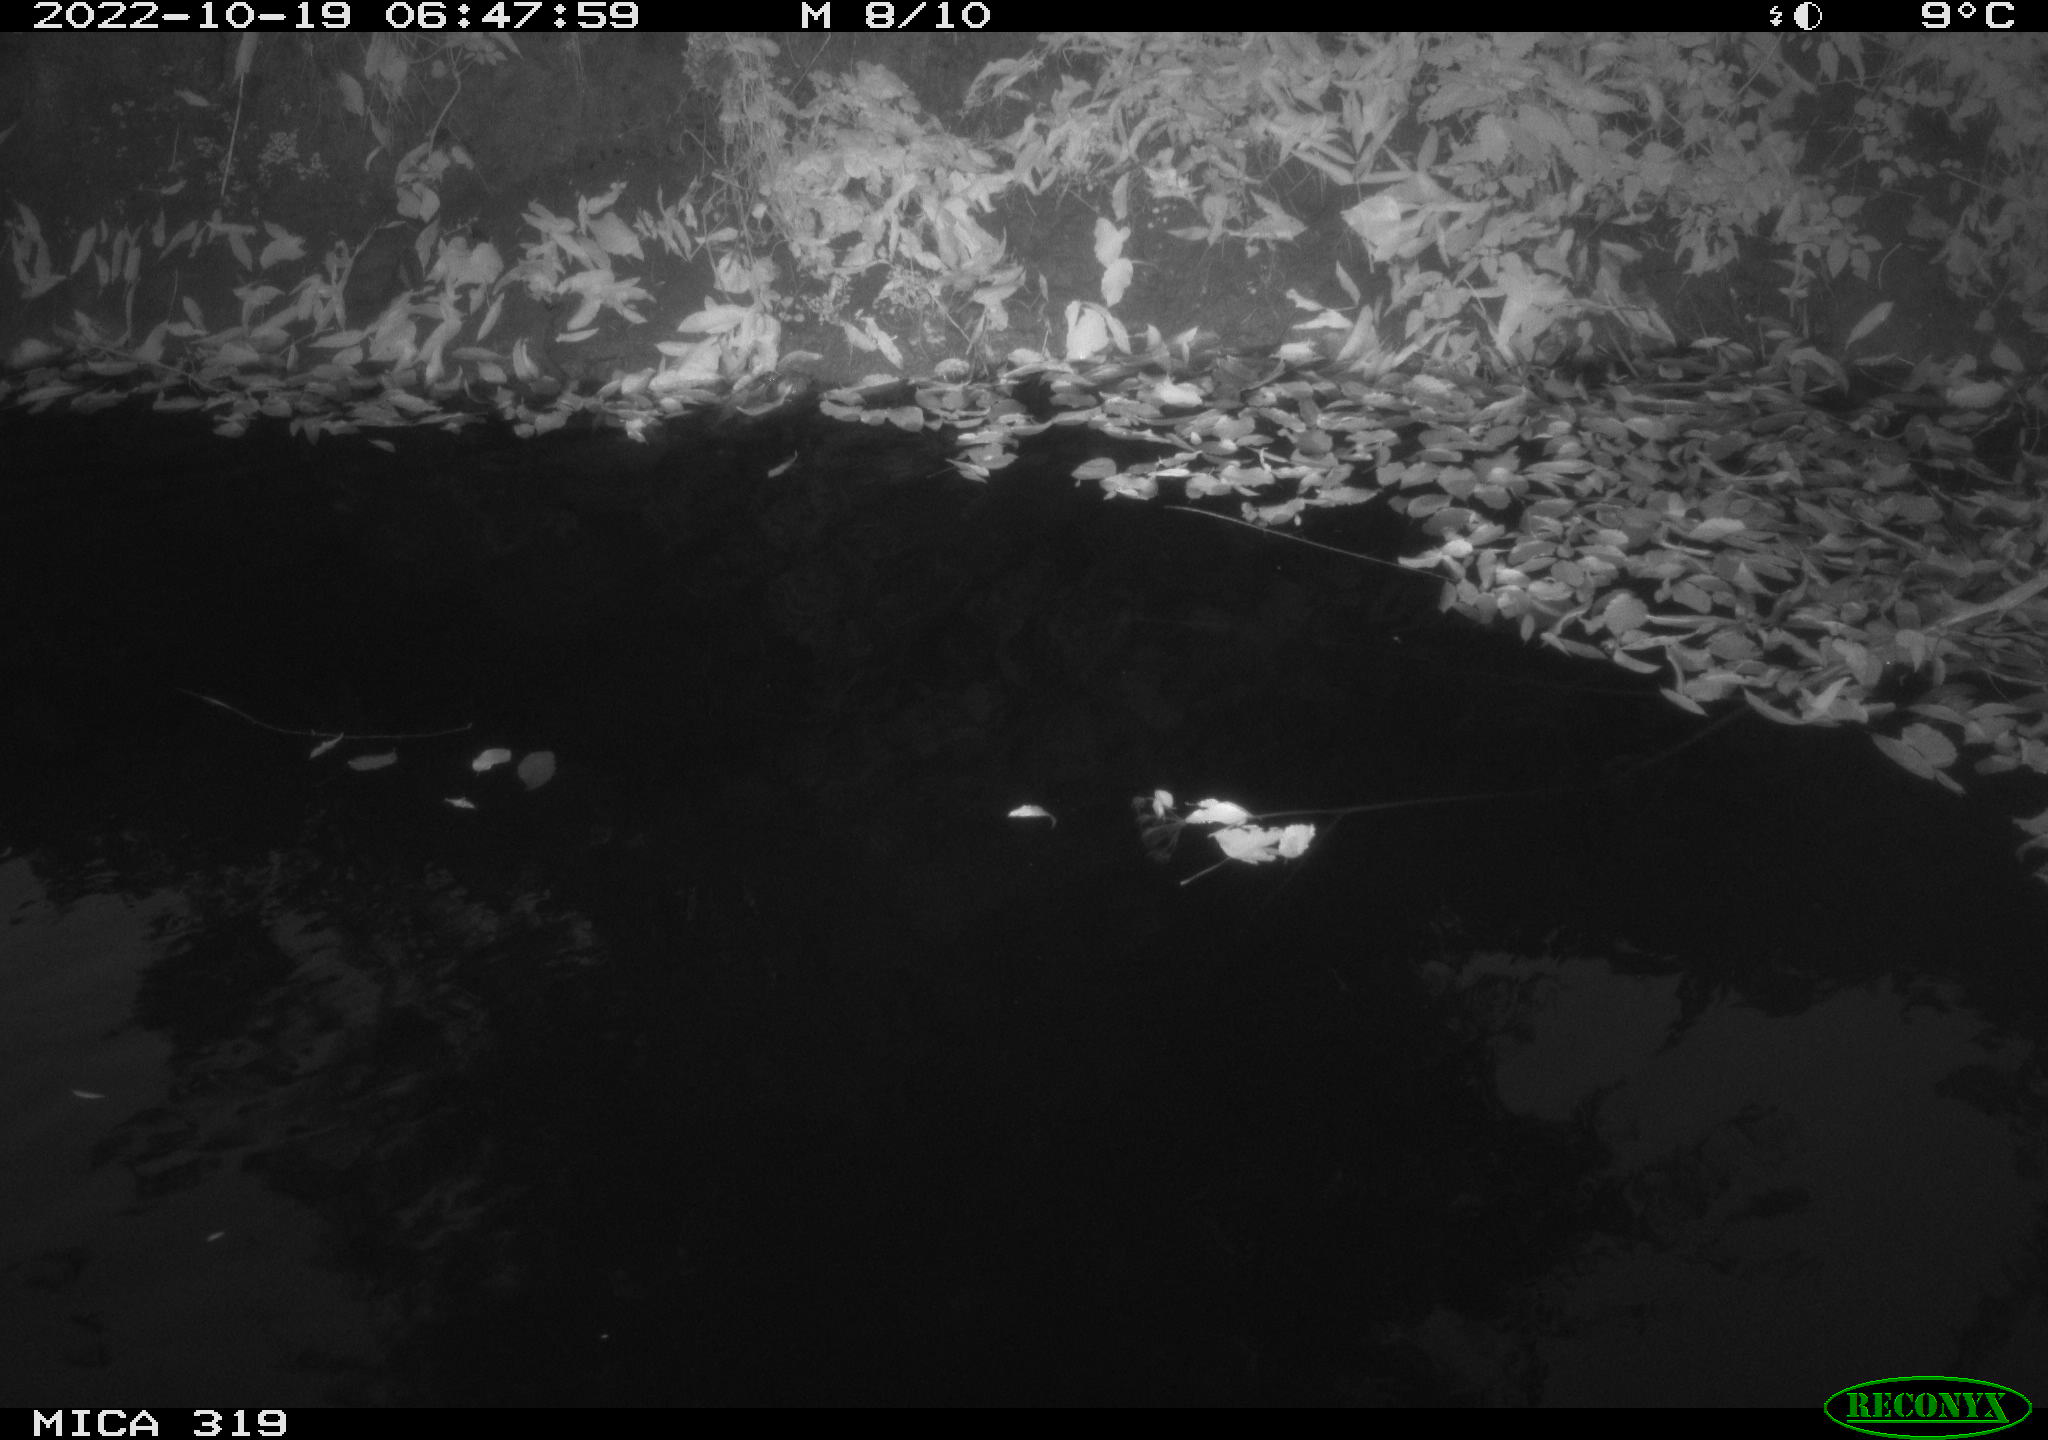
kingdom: Animalia
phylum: Chordata
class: Aves
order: Anseriformes
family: Anatidae
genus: Anas
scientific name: Anas
